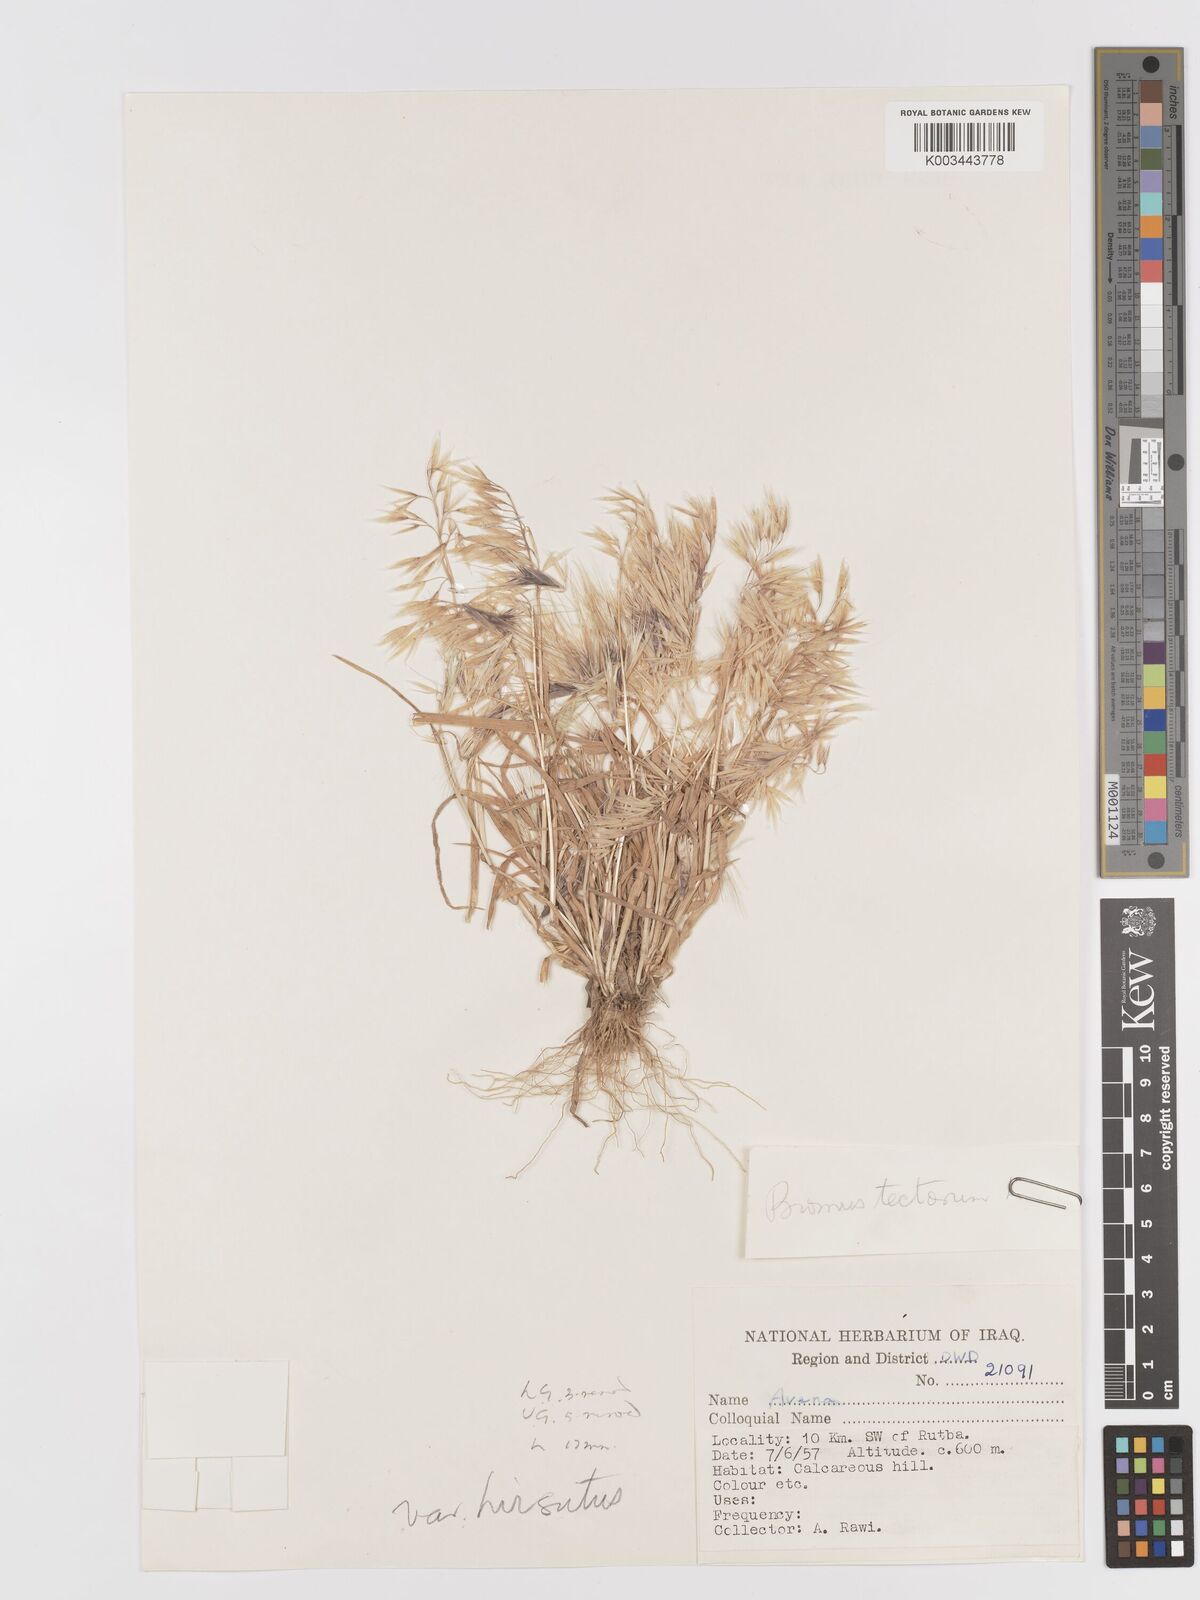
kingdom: Plantae
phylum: Tracheophyta
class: Liliopsida
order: Poales
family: Poaceae
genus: Bromus
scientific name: Bromus tectorum
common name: Cheatgrass
